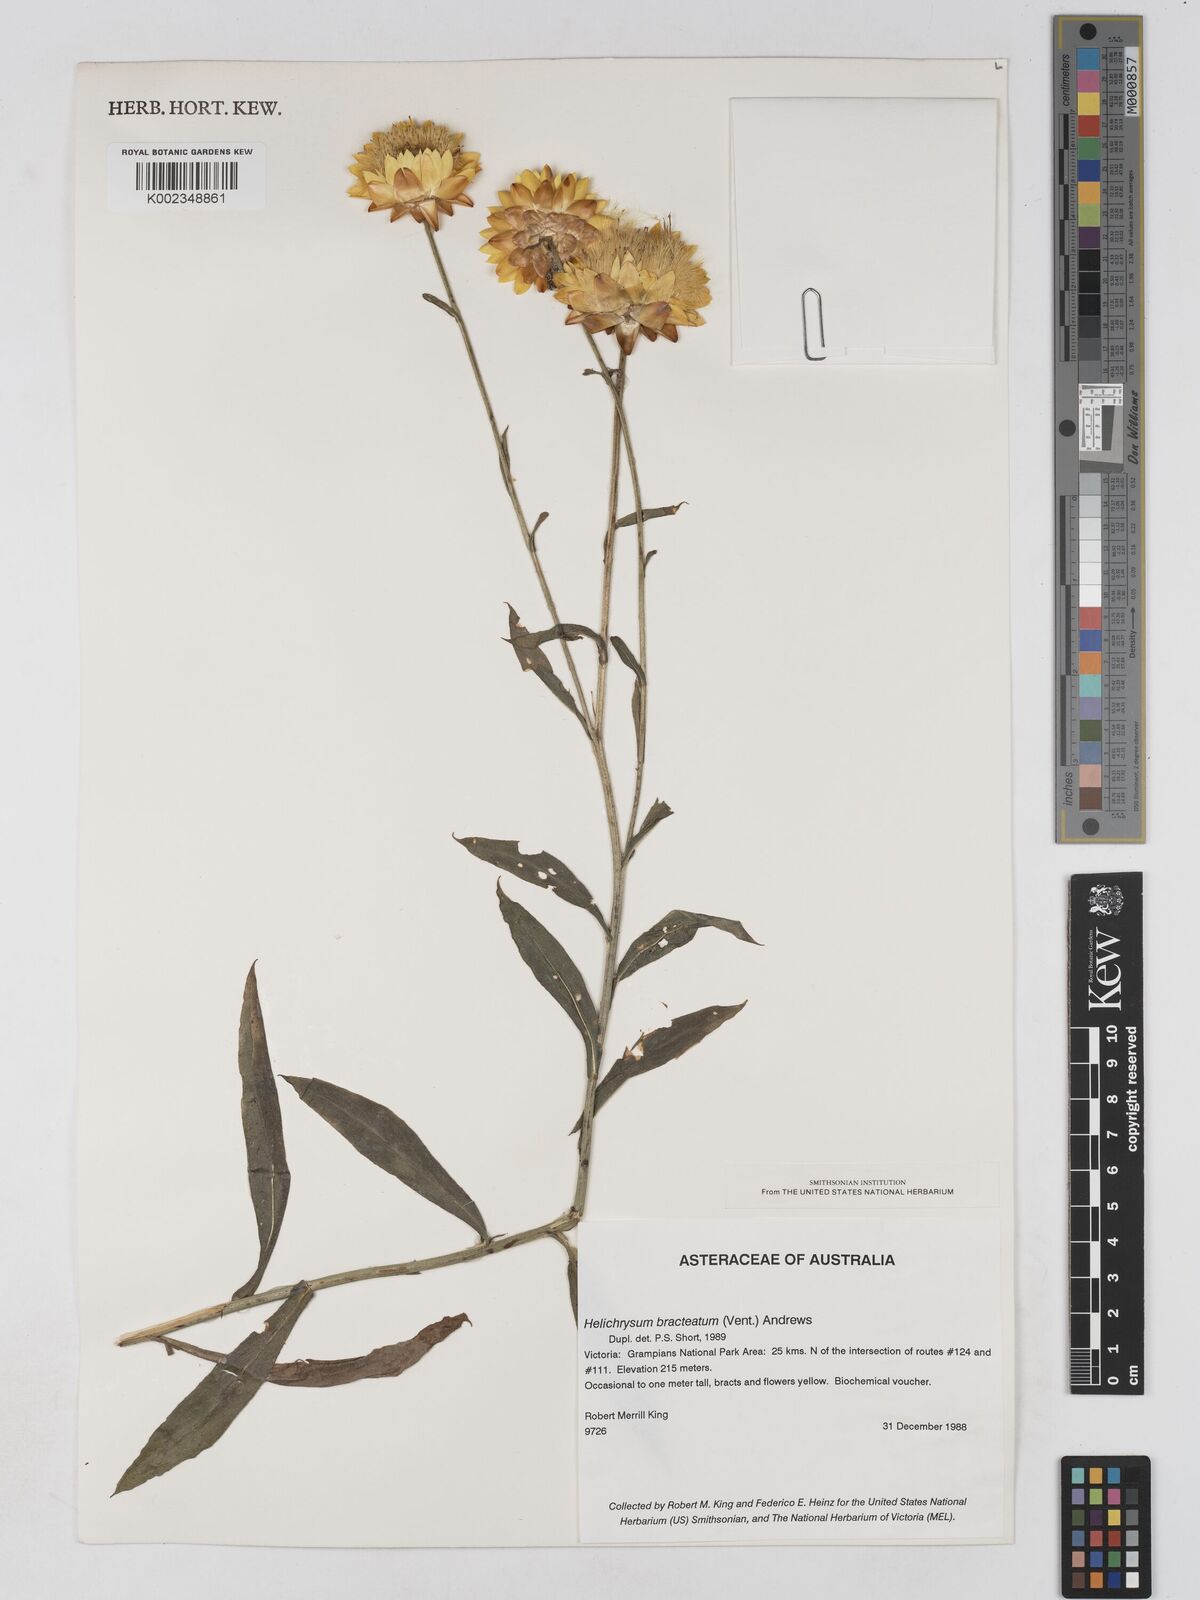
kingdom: Plantae
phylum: Tracheophyta
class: Magnoliopsida
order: Asterales
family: Asteraceae
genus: Xerochrysum
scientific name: Xerochrysum bracteatum
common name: Bracted strawflower
